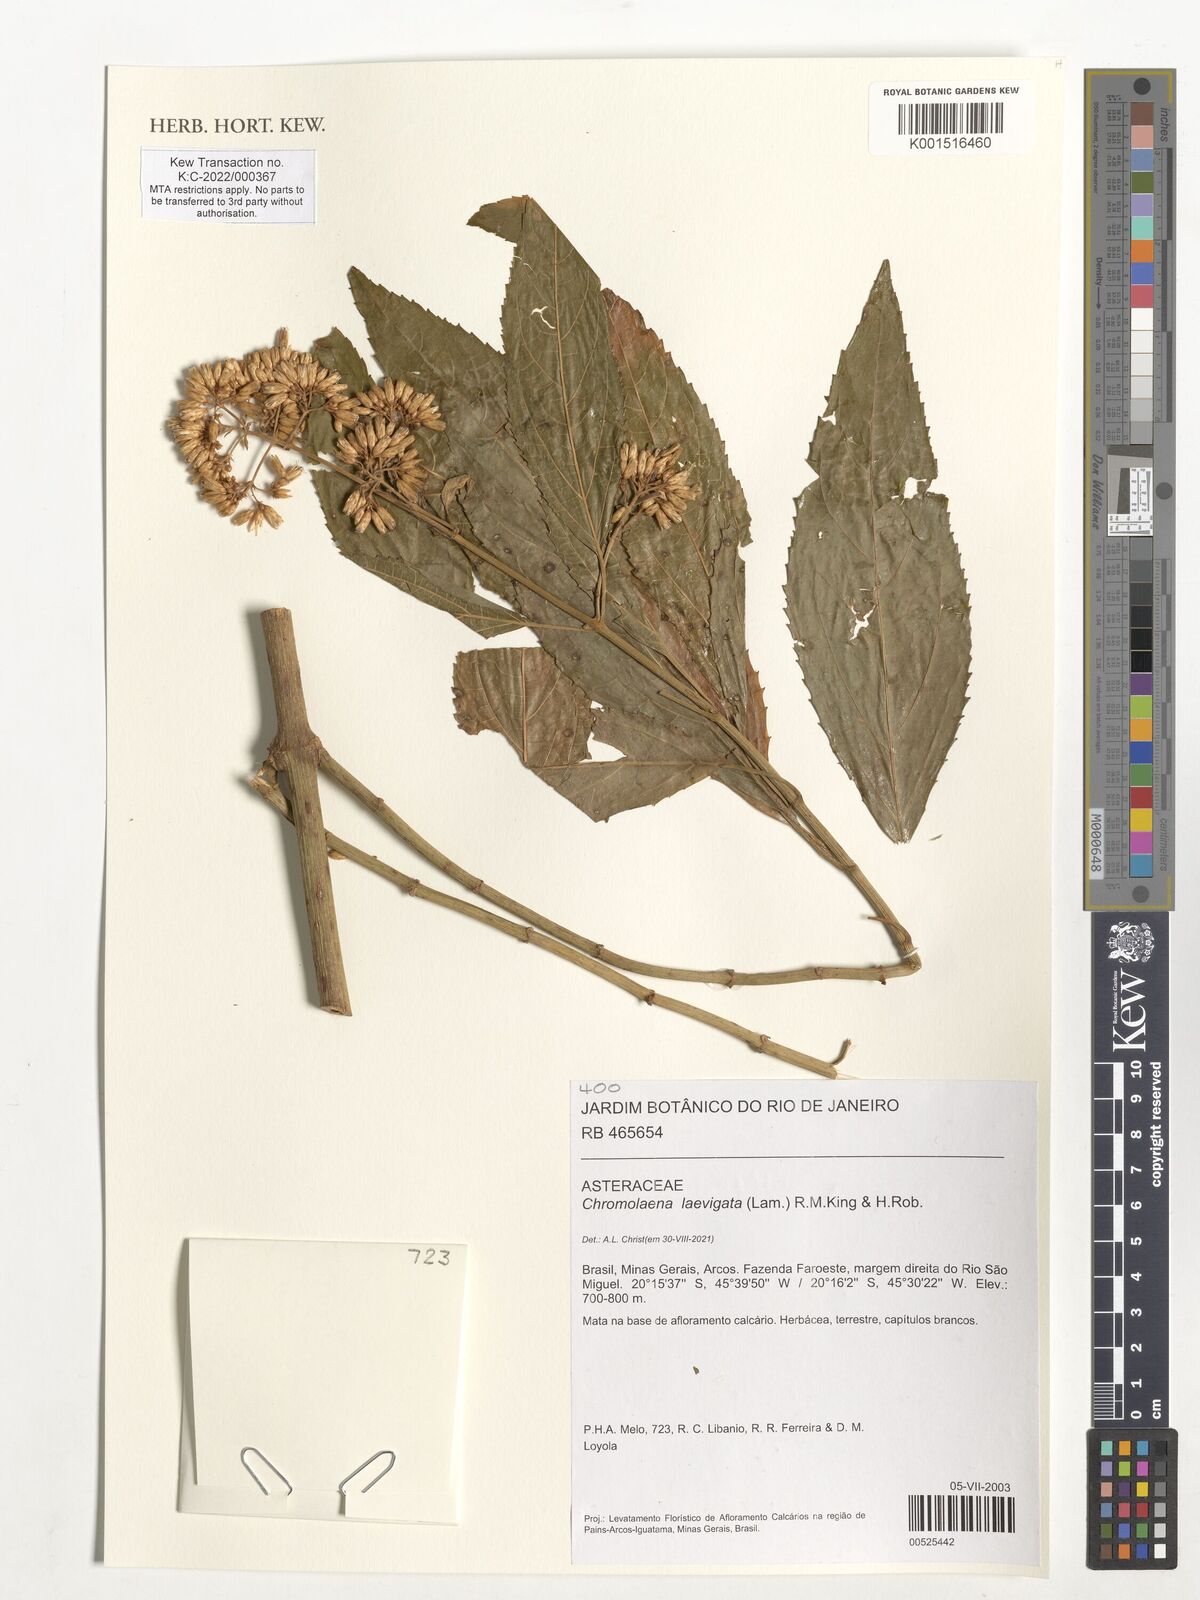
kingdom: Plantae
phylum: Tracheophyta
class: Magnoliopsida
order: Asterales
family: Asteraceae
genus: Chromolaena
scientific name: Chromolaena laevigata
